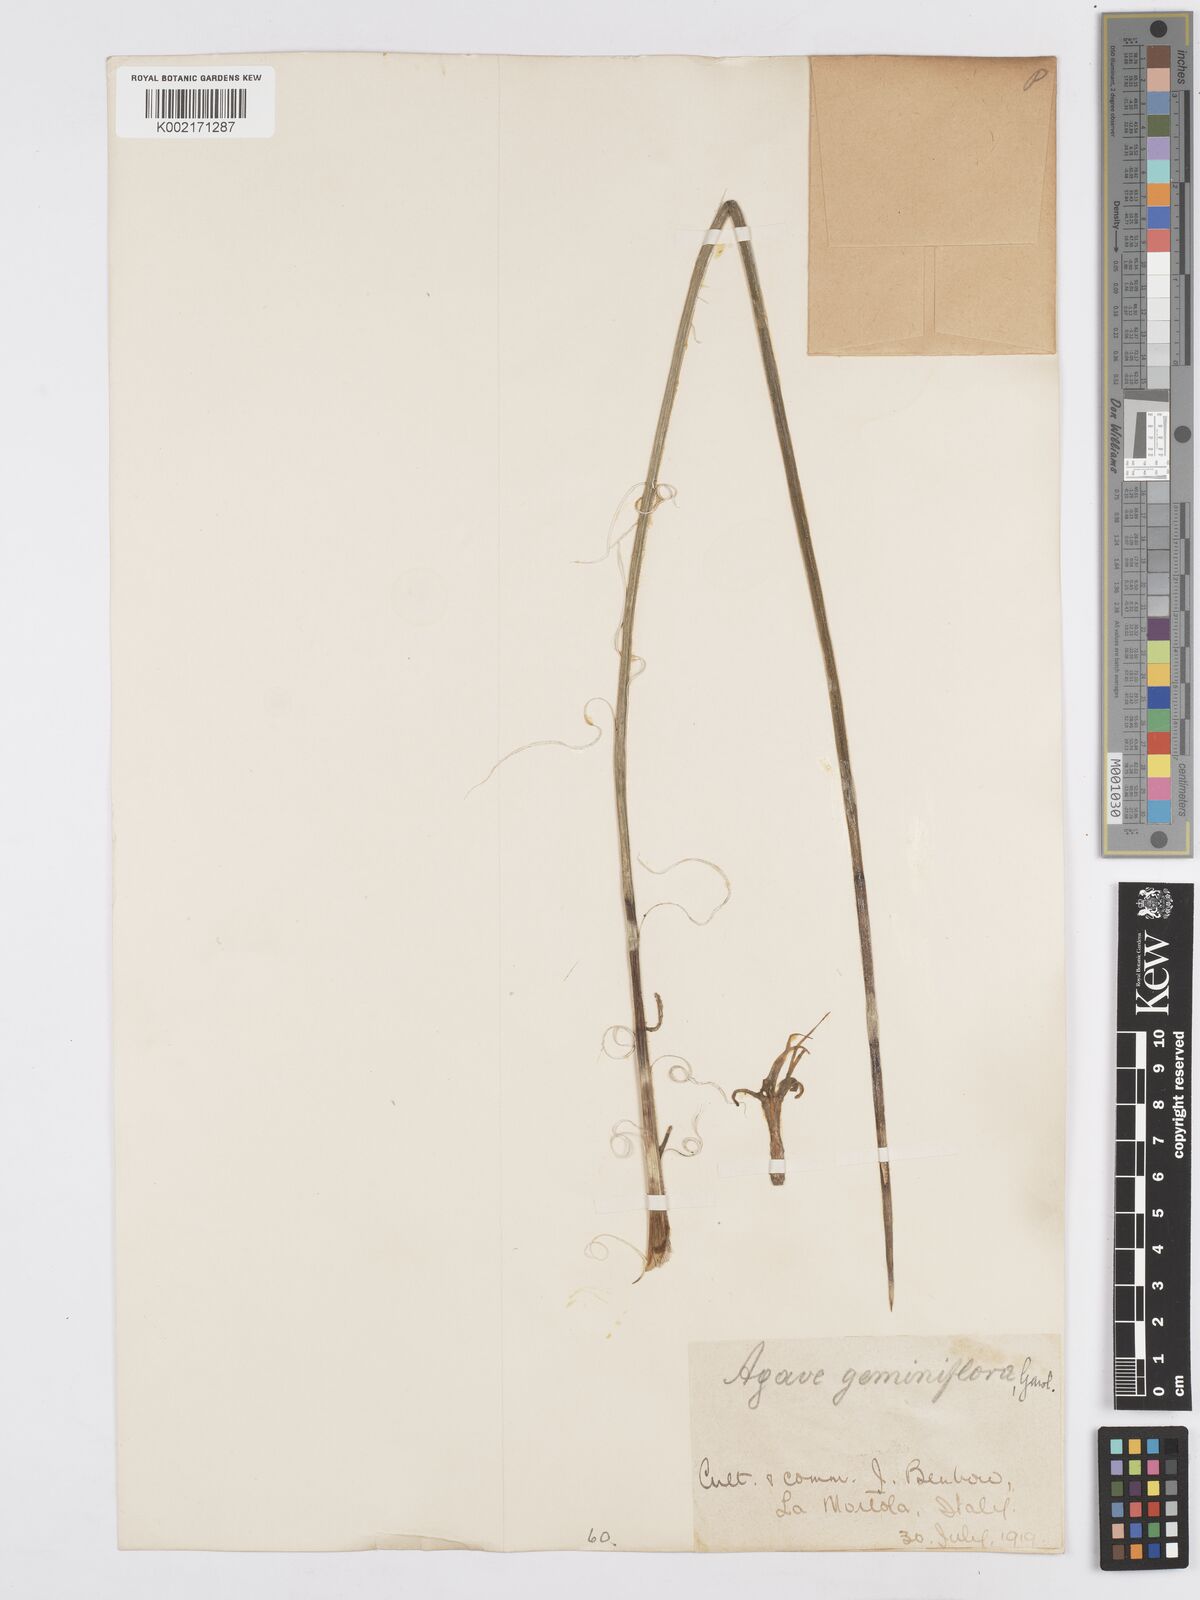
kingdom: Plantae
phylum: Tracheophyta
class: Liliopsida
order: Asparagales
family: Asparagaceae
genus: Agave
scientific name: Agave geminiflora
